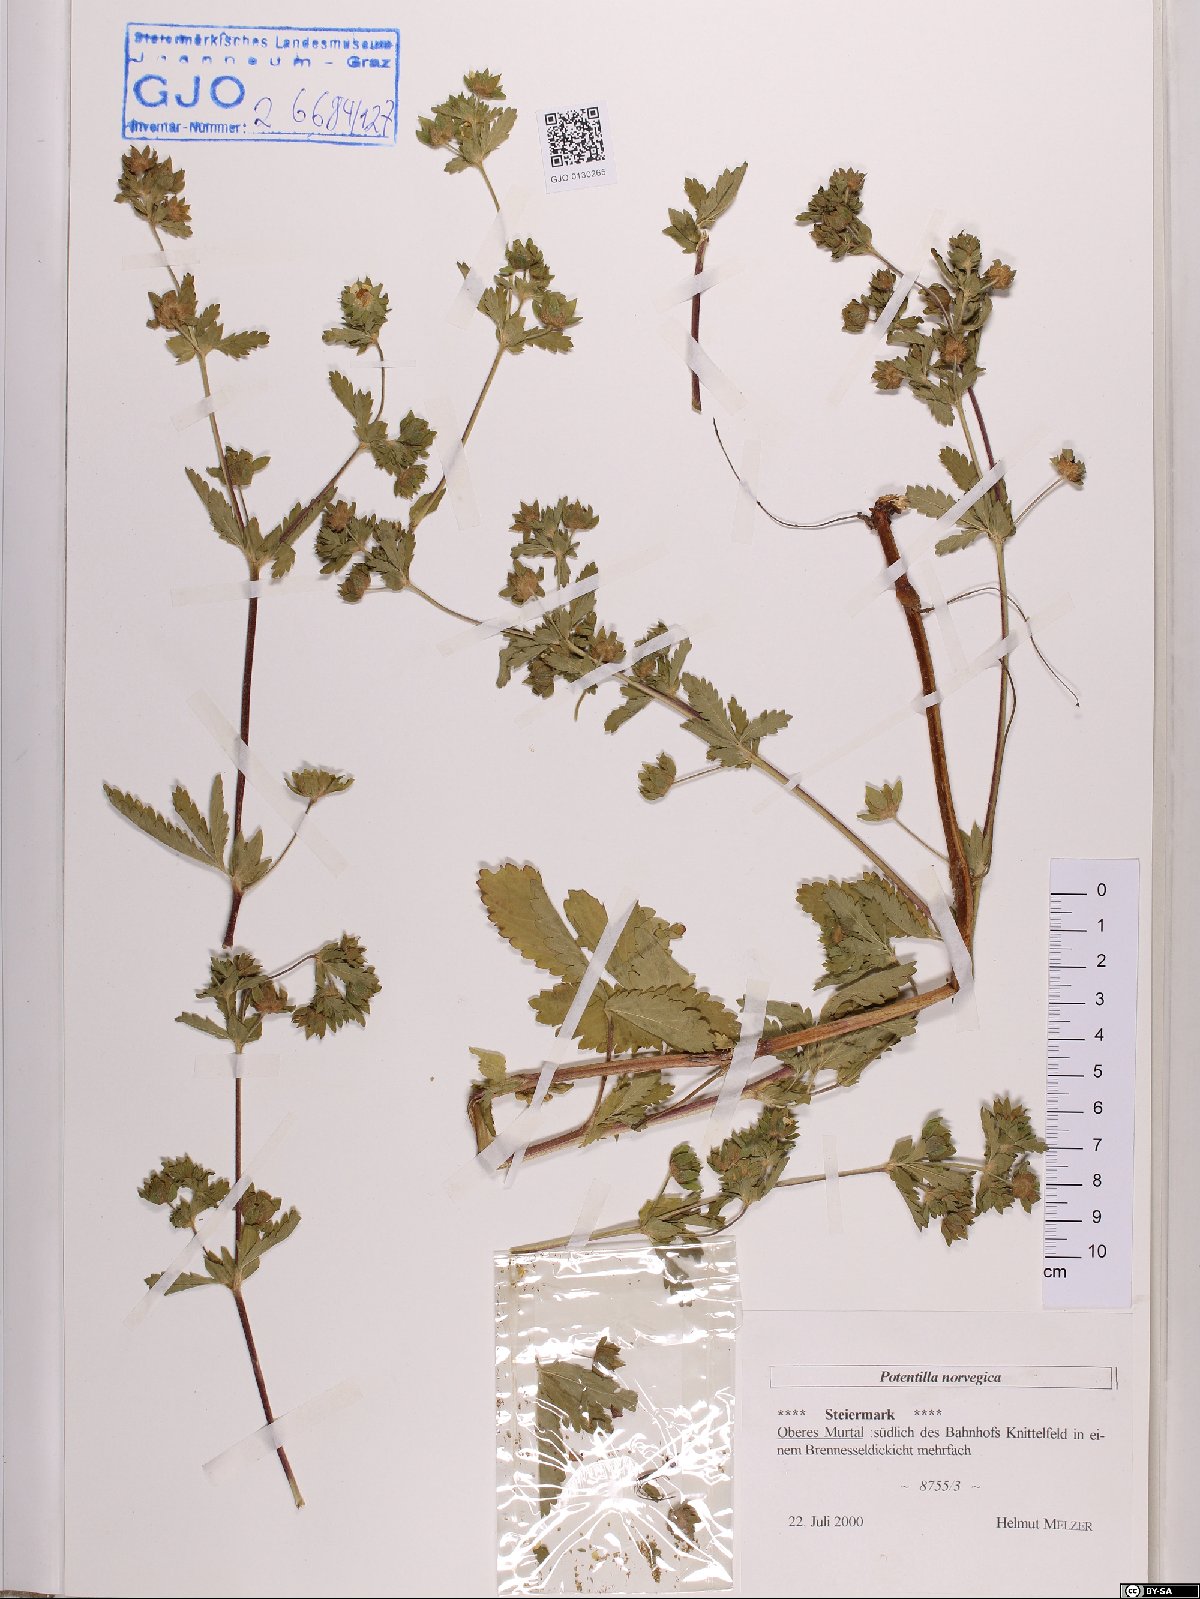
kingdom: Plantae
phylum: Tracheophyta
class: Magnoliopsida
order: Rosales
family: Rosaceae
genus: Potentilla
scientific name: Potentilla norvegica
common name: Ternate-leaved cinquefoil
